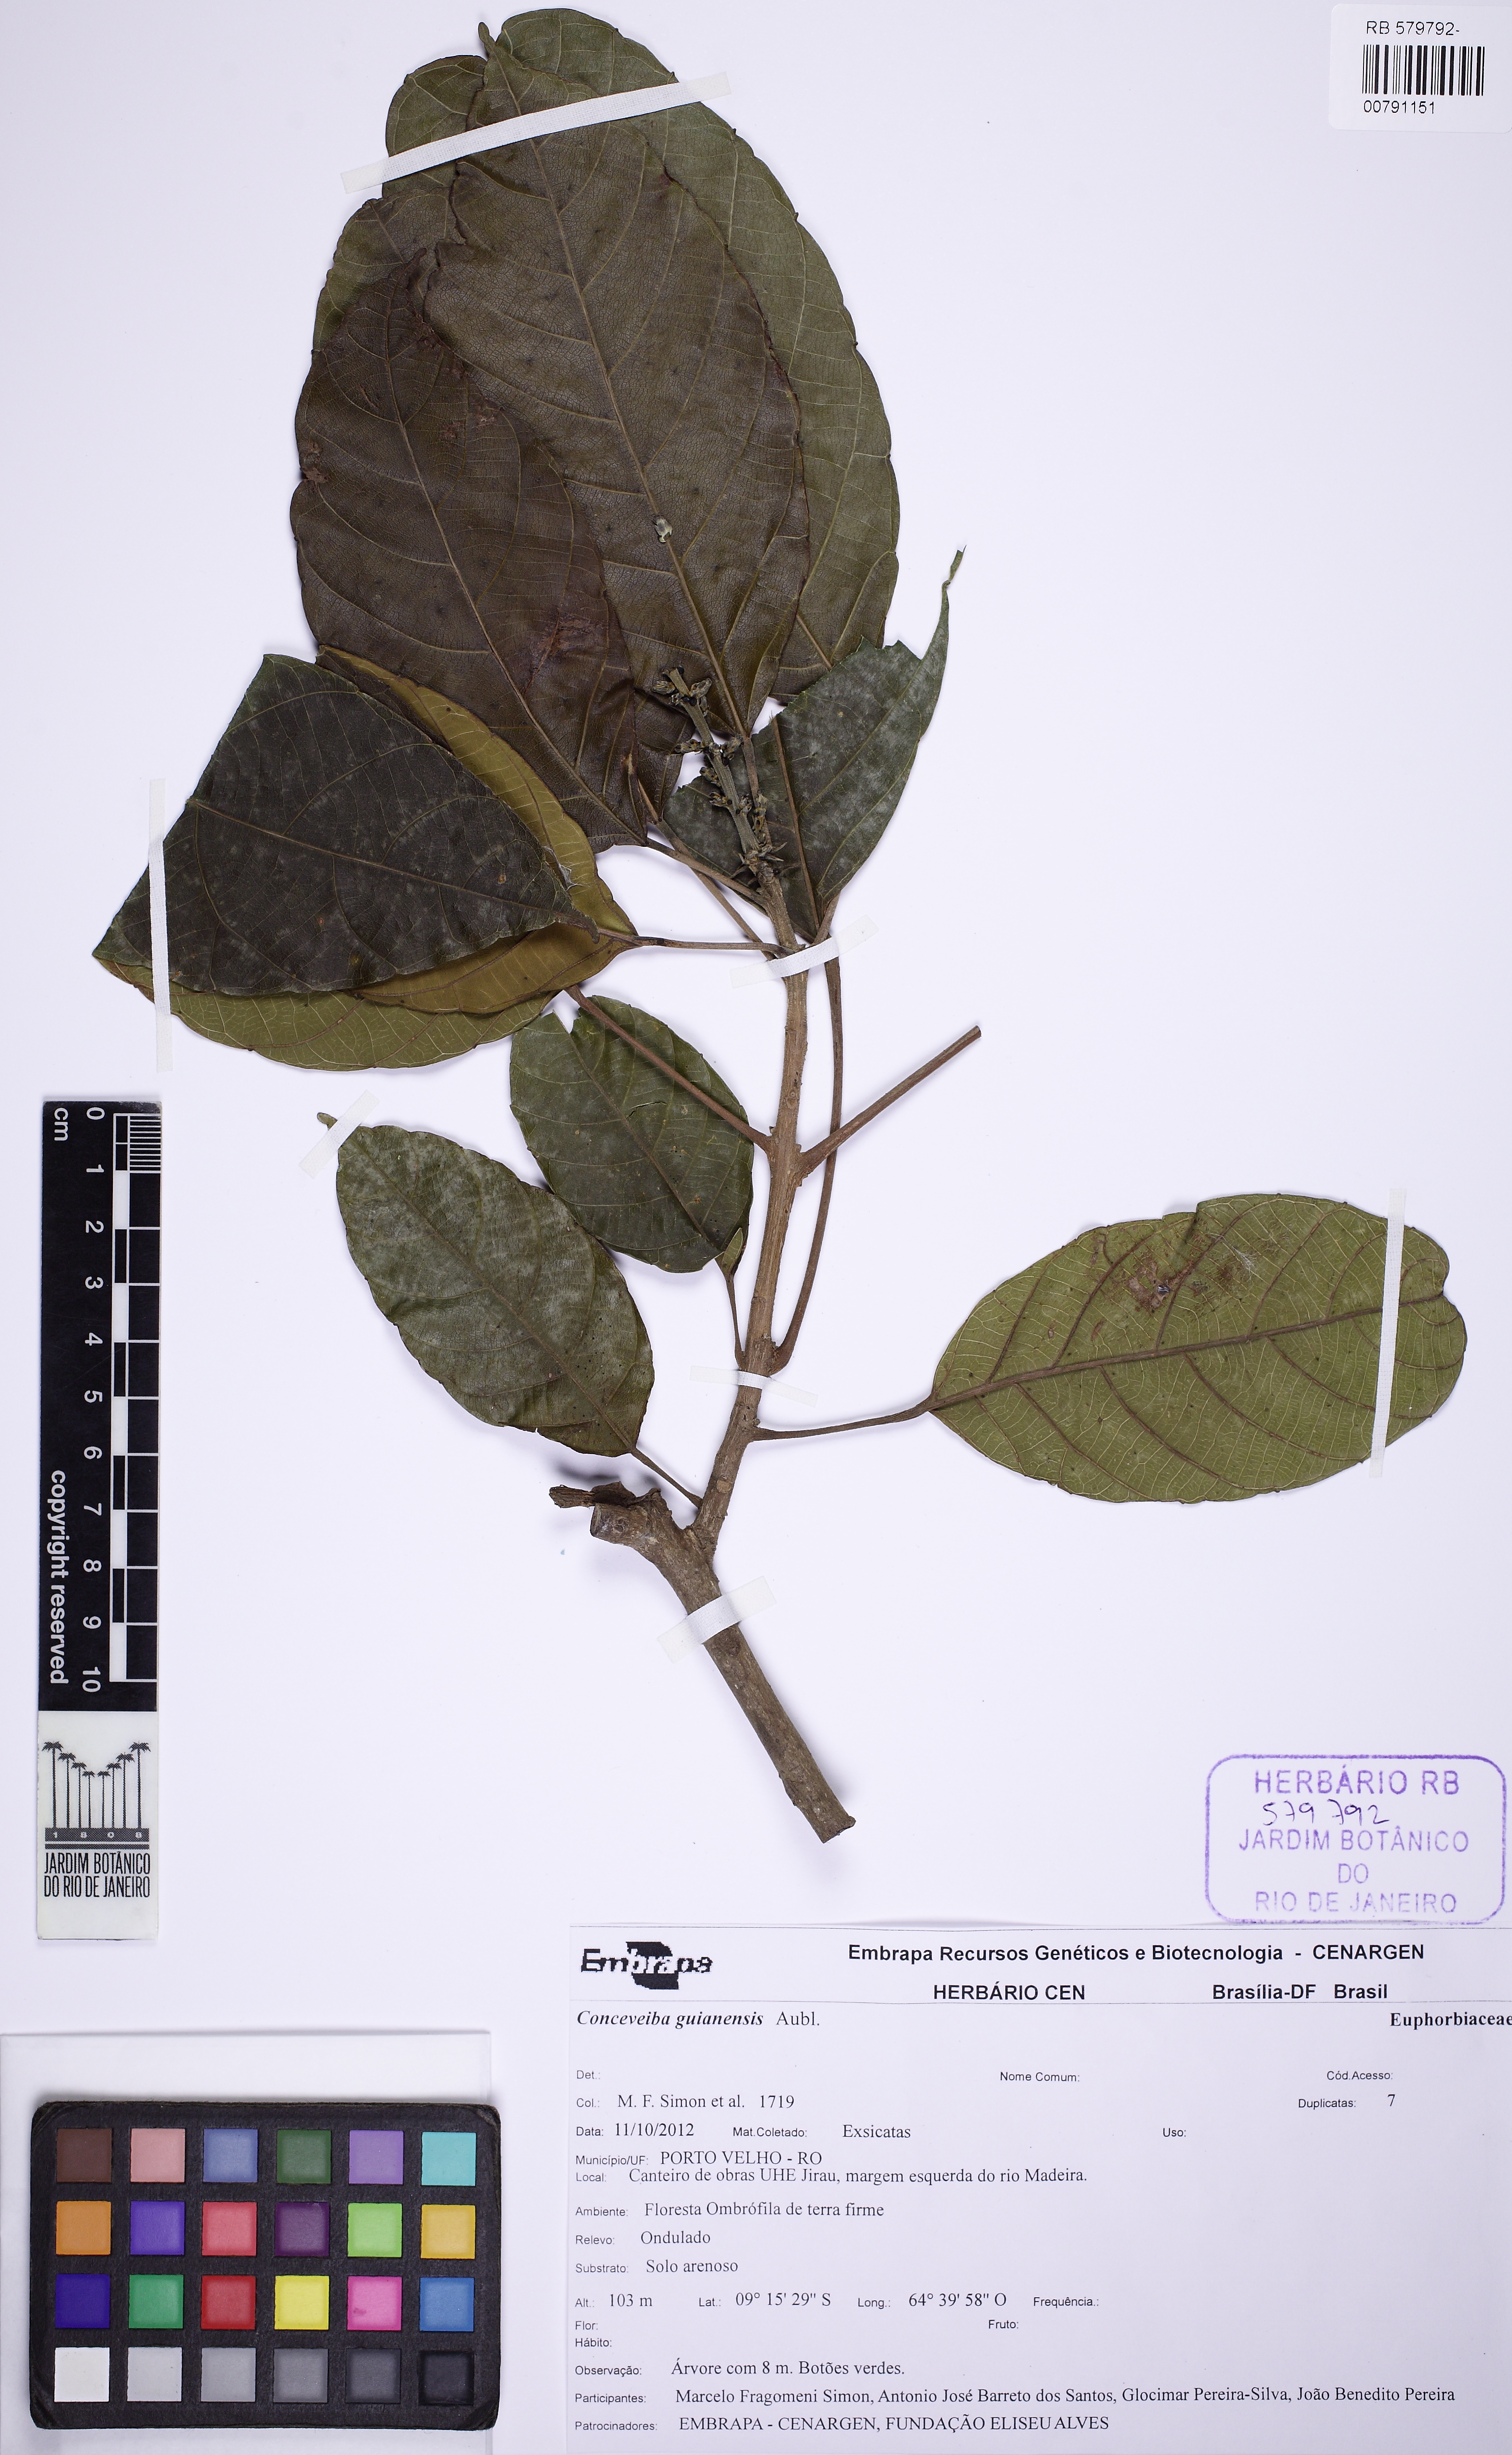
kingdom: Plantae
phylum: Tracheophyta
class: Magnoliopsida
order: Malpighiales
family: Euphorbiaceae
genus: Conceveiba
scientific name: Conceveiba guianensis
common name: Poatoru
